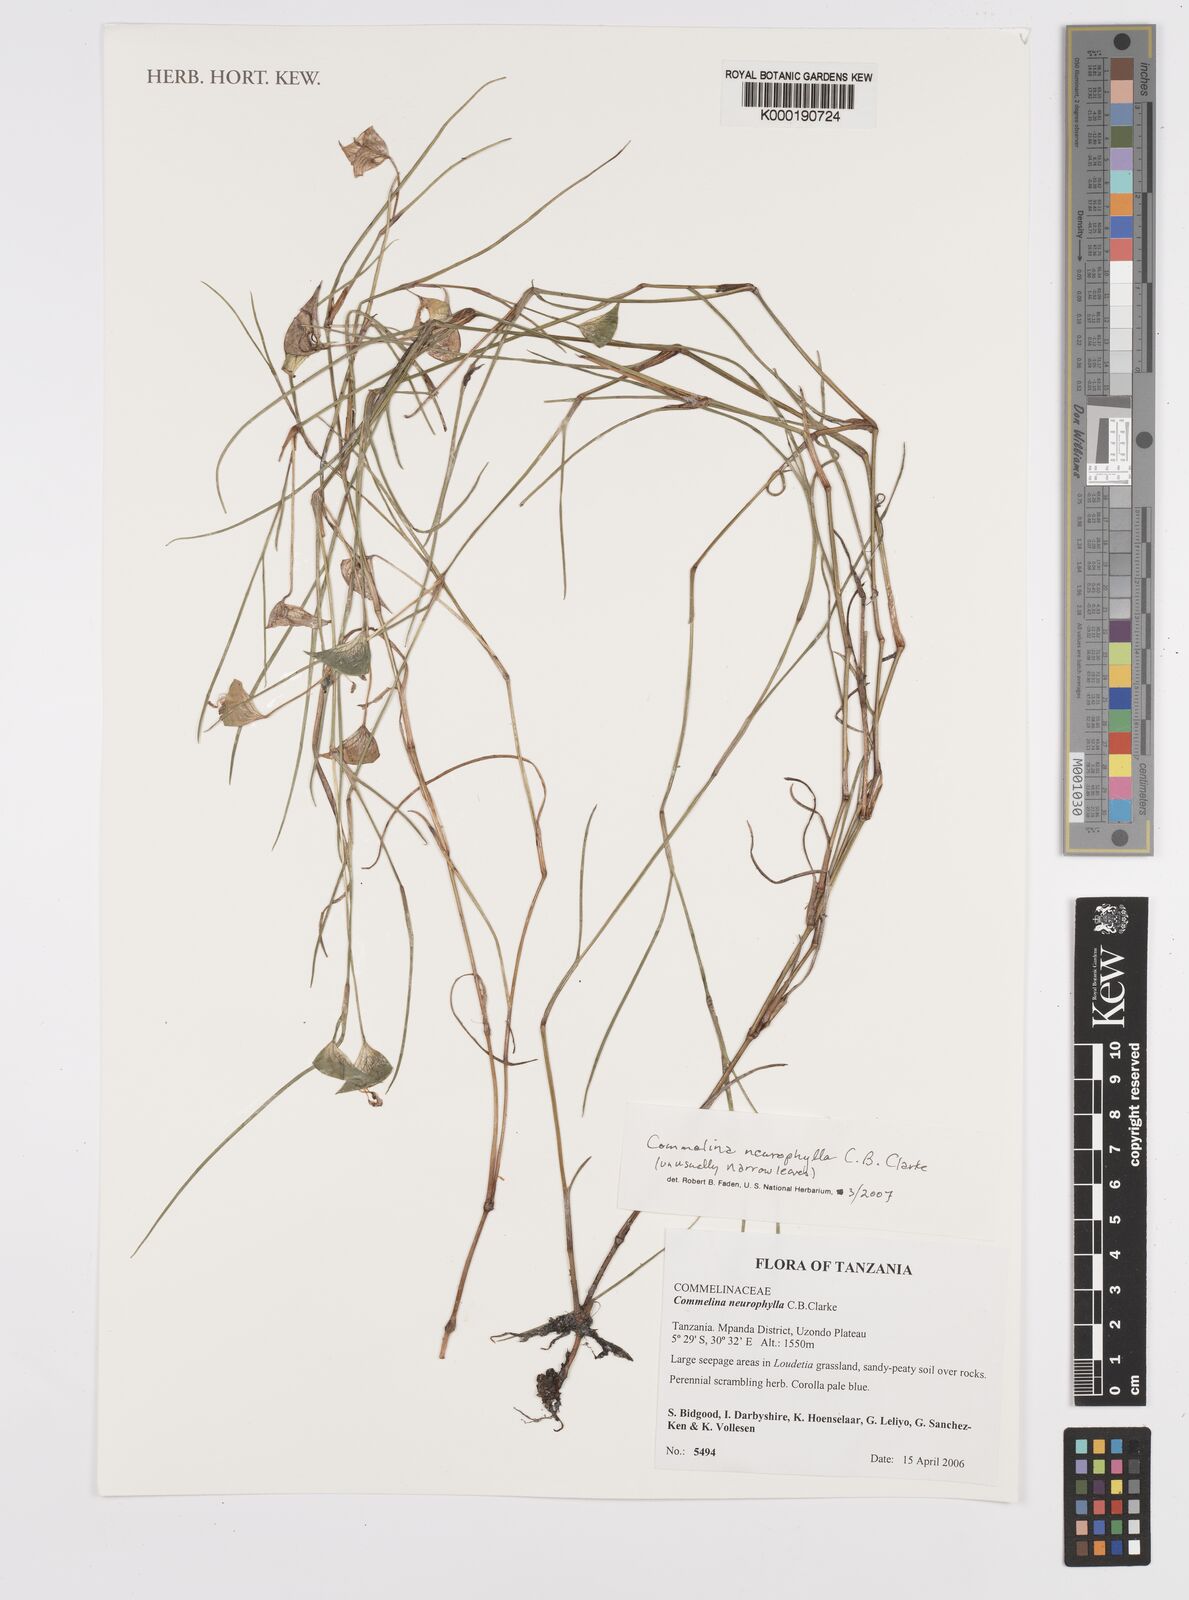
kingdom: Plantae
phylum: Tracheophyta
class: Liliopsida
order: Commelinales
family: Commelinaceae
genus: Commelina
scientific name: Commelina neurophylla
